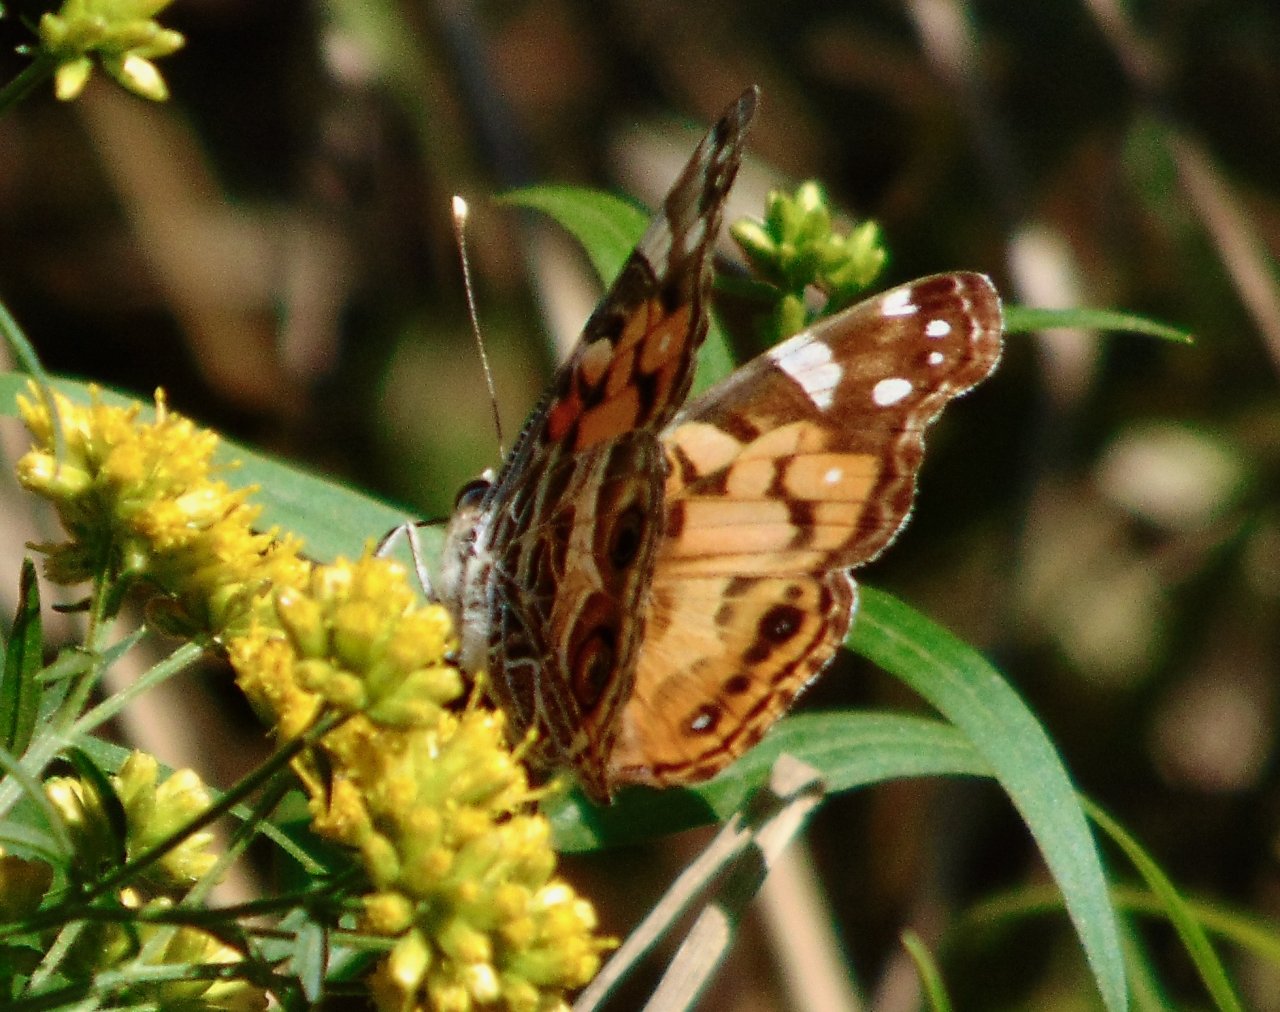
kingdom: Animalia
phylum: Arthropoda
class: Insecta
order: Lepidoptera
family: Nymphalidae
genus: Vanessa
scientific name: Vanessa virginiensis
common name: American Lady
